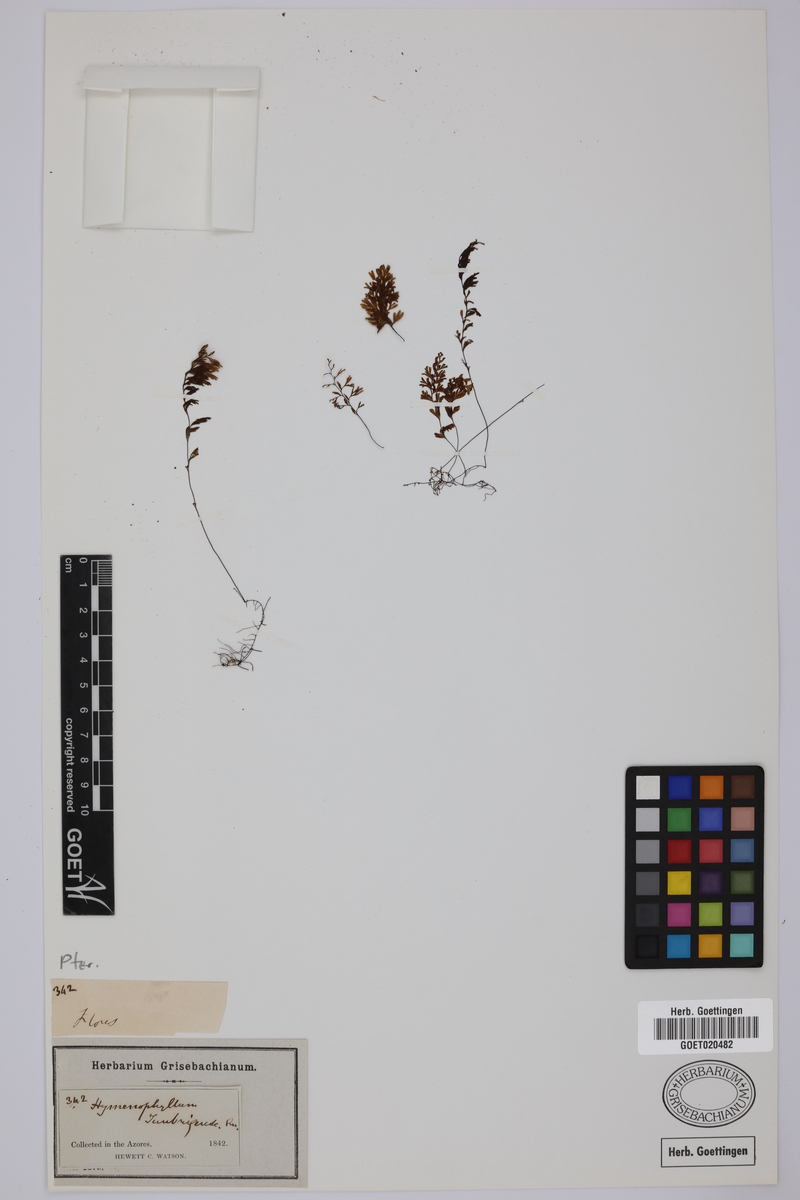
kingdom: Plantae
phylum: Tracheophyta
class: Polypodiopsida
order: Hymenophyllales
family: Hymenophyllaceae
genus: Hymenophyllum
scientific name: Hymenophyllum tunbrigense
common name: Tunbridge filmy fern
